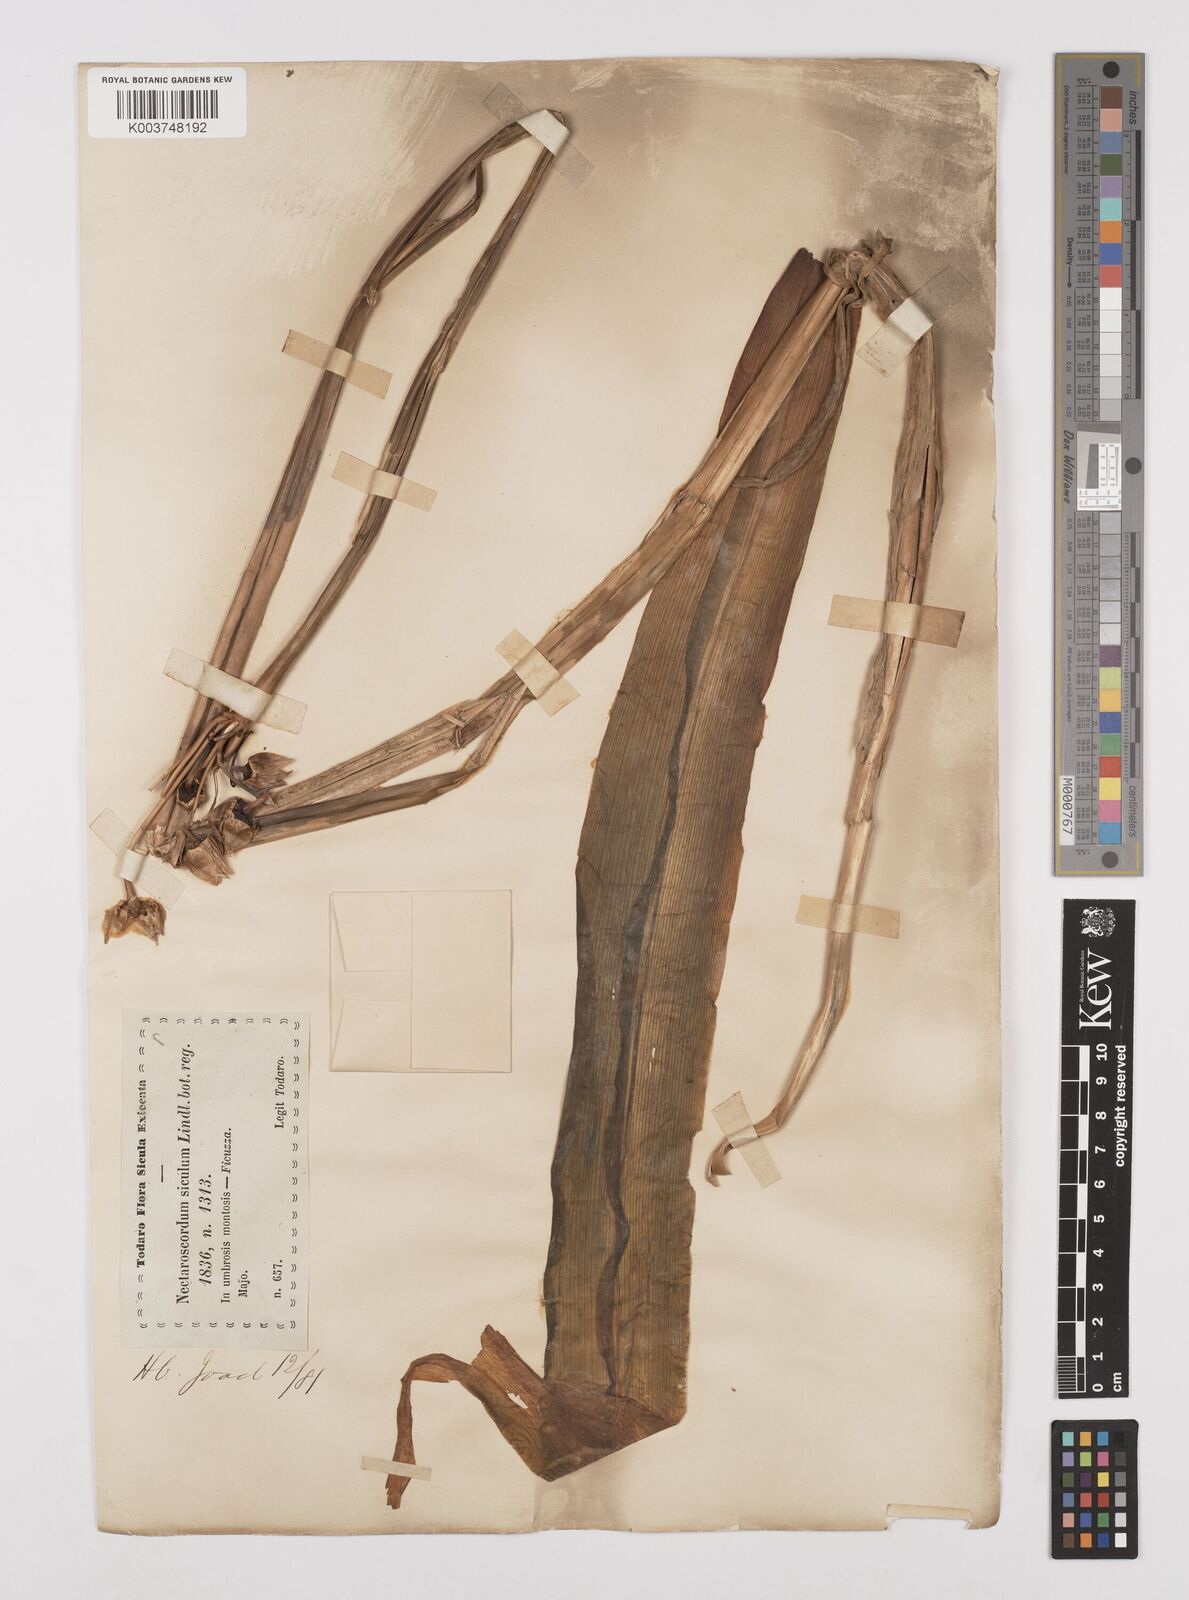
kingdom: Plantae
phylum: Tracheophyta
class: Liliopsida
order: Asparagales
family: Amaryllidaceae
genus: Allium
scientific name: Allium siculum
